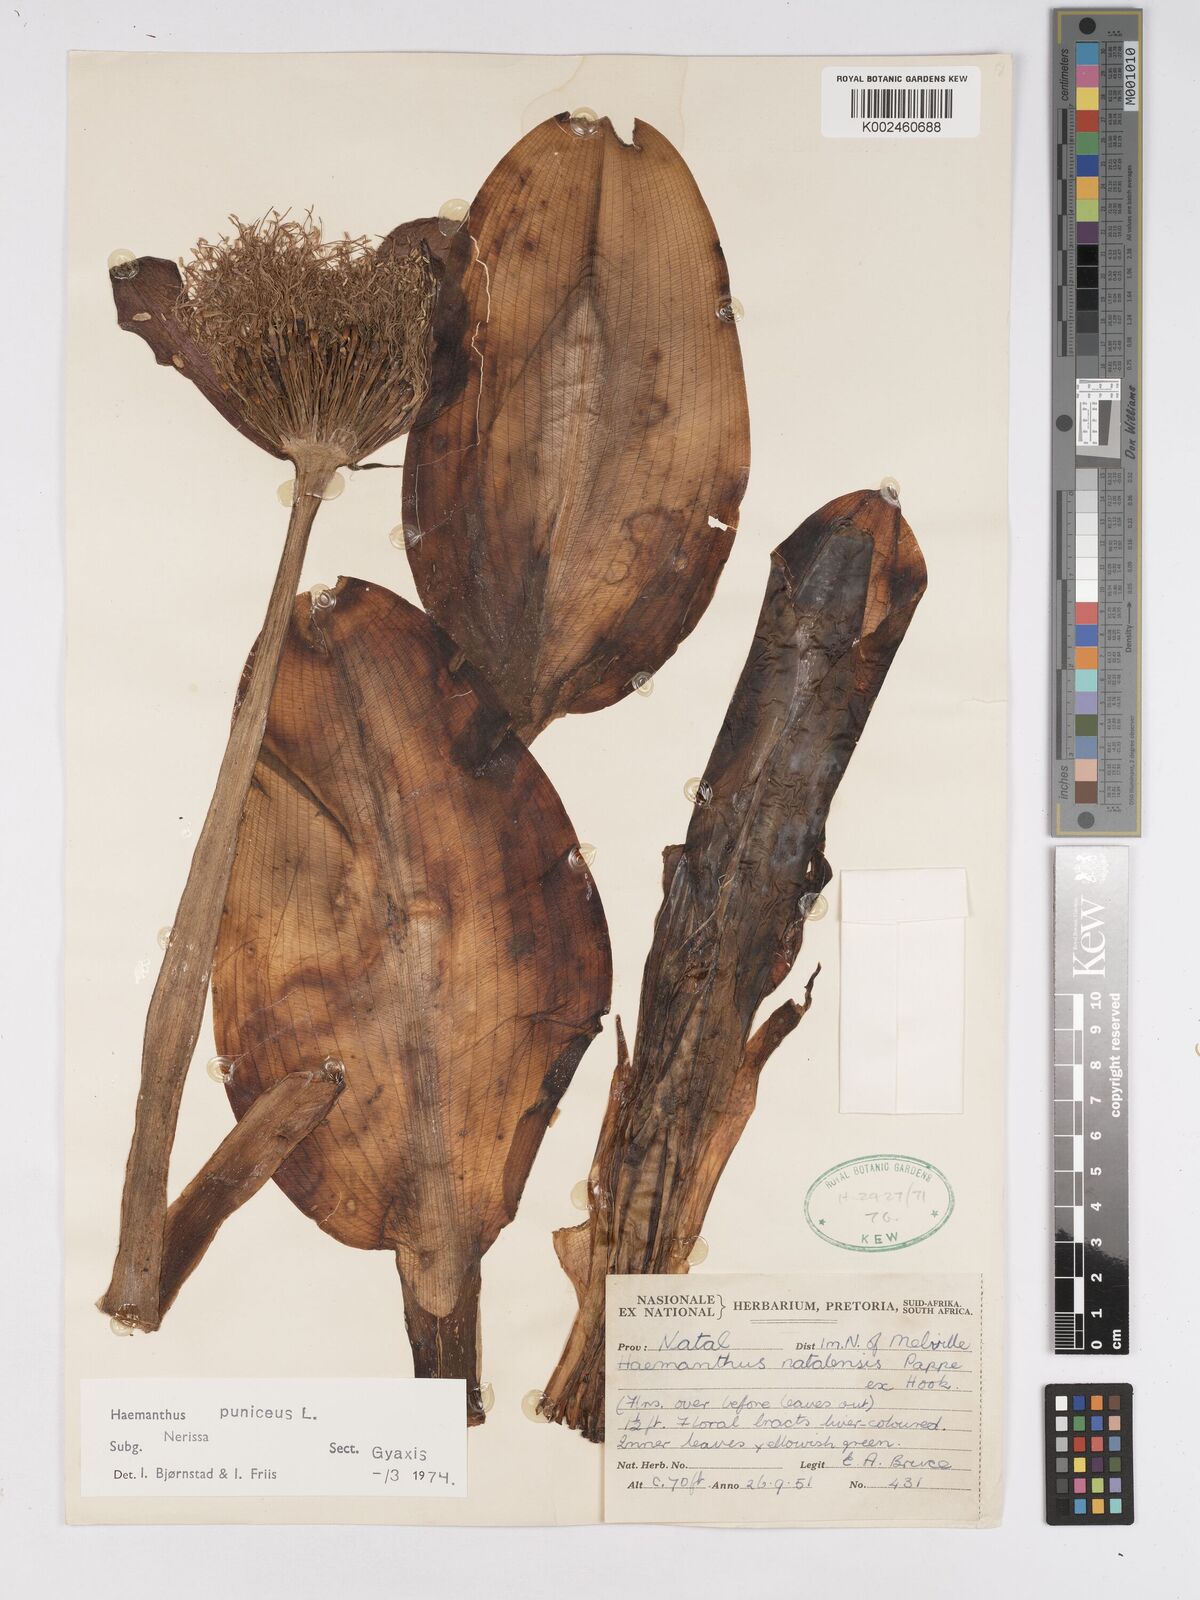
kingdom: Plantae
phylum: Tracheophyta
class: Liliopsida
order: Asparagales
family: Amaryllidaceae
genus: Scadoxus
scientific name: Scadoxus puniceus
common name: Royal-paintbrush
